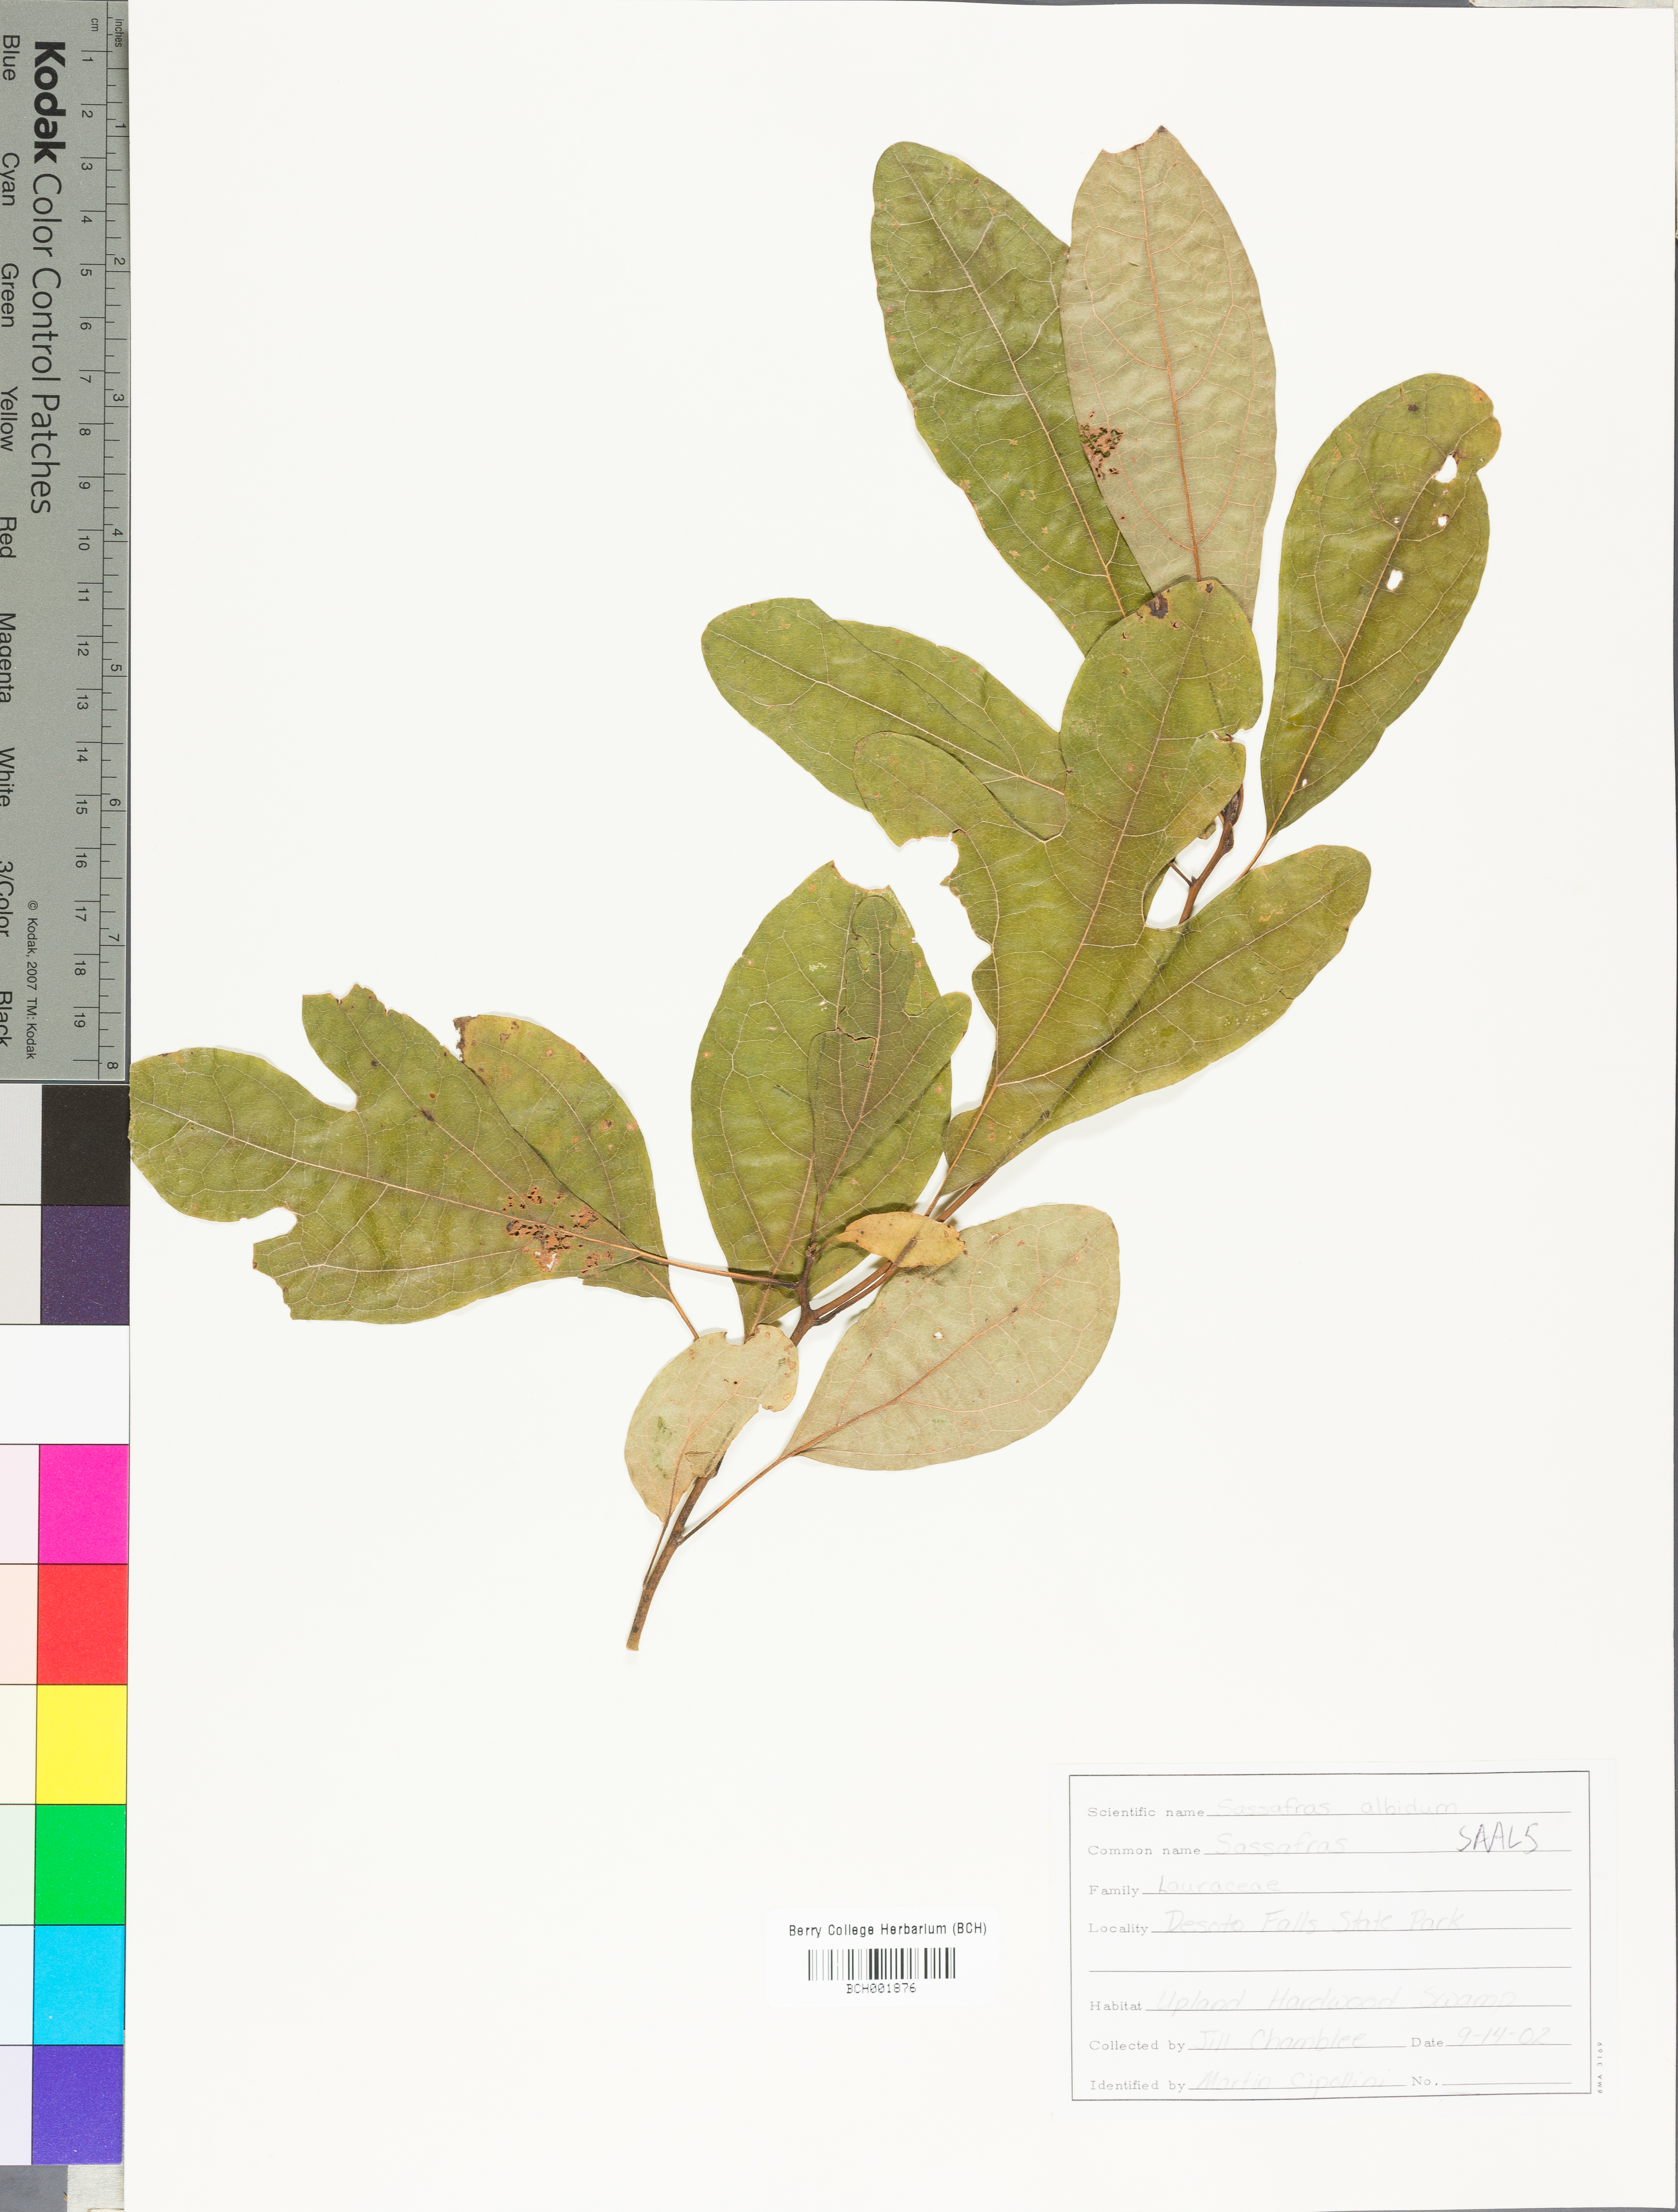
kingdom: Plantae
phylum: Tracheophyta
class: Magnoliopsida
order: Laurales
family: Lauraceae
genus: Sassafras
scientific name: Sassafras albidum
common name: Sassafras
